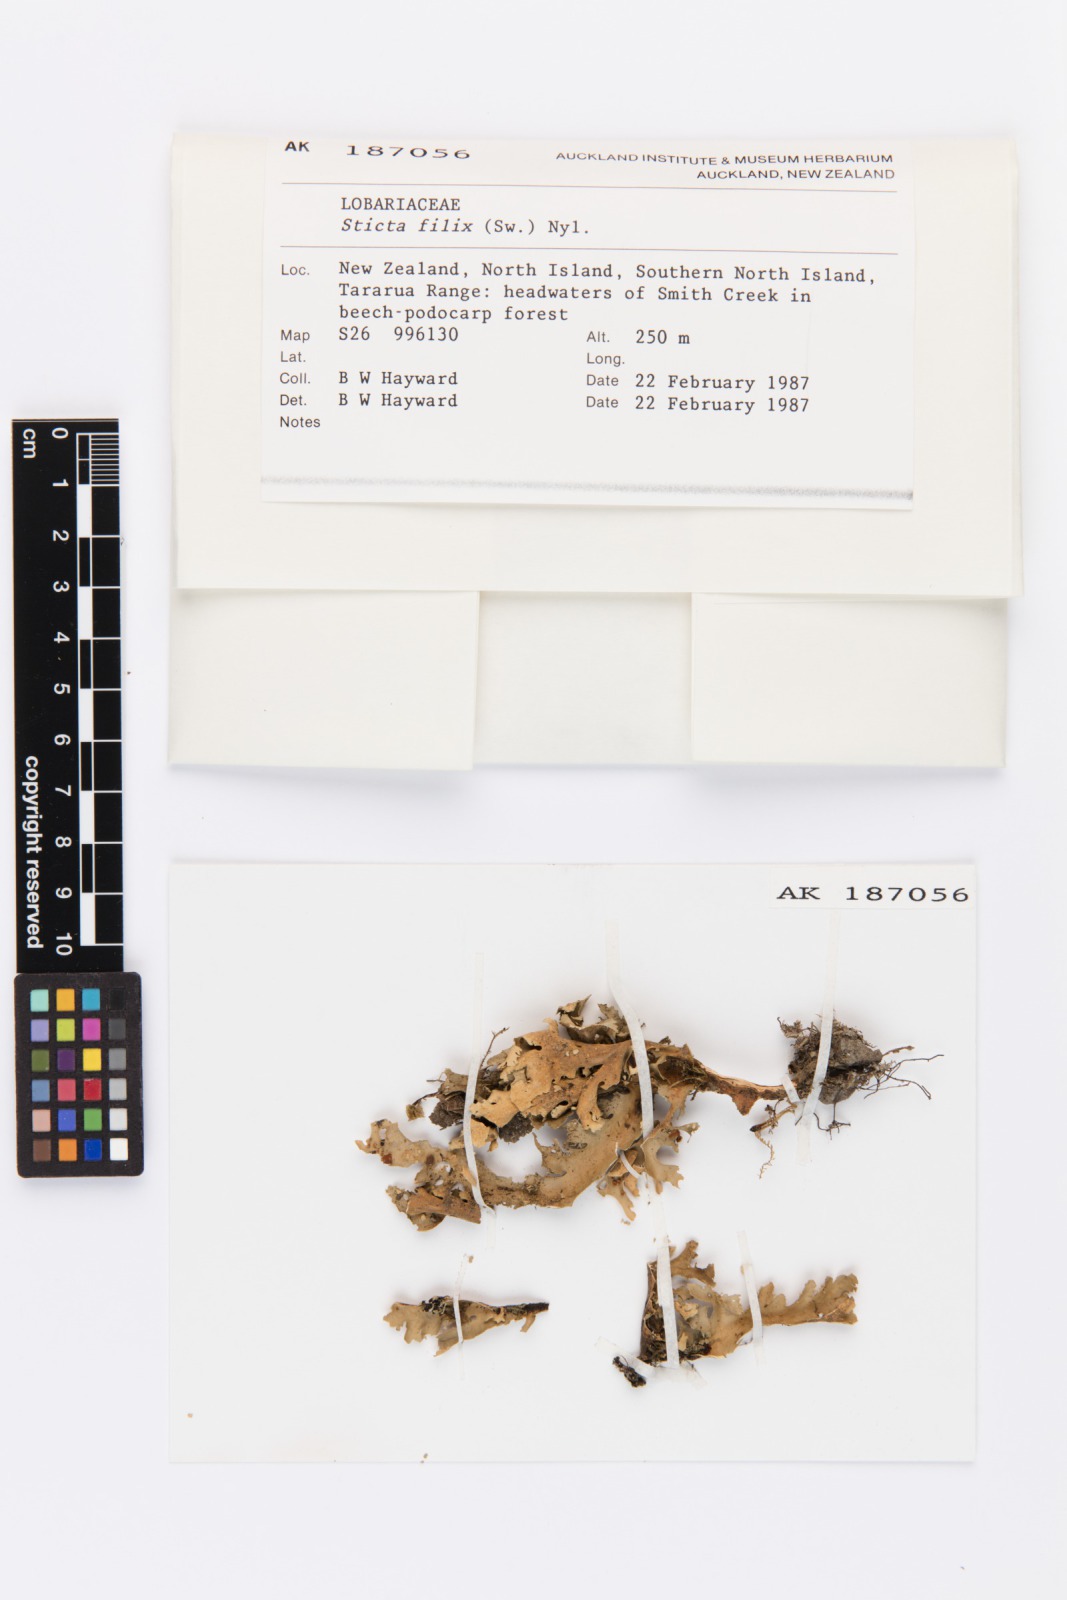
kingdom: Fungi
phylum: Ascomycota
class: Lecanoromycetes
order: Peltigerales
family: Lobariaceae
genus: Sticta
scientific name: Sticta filix
